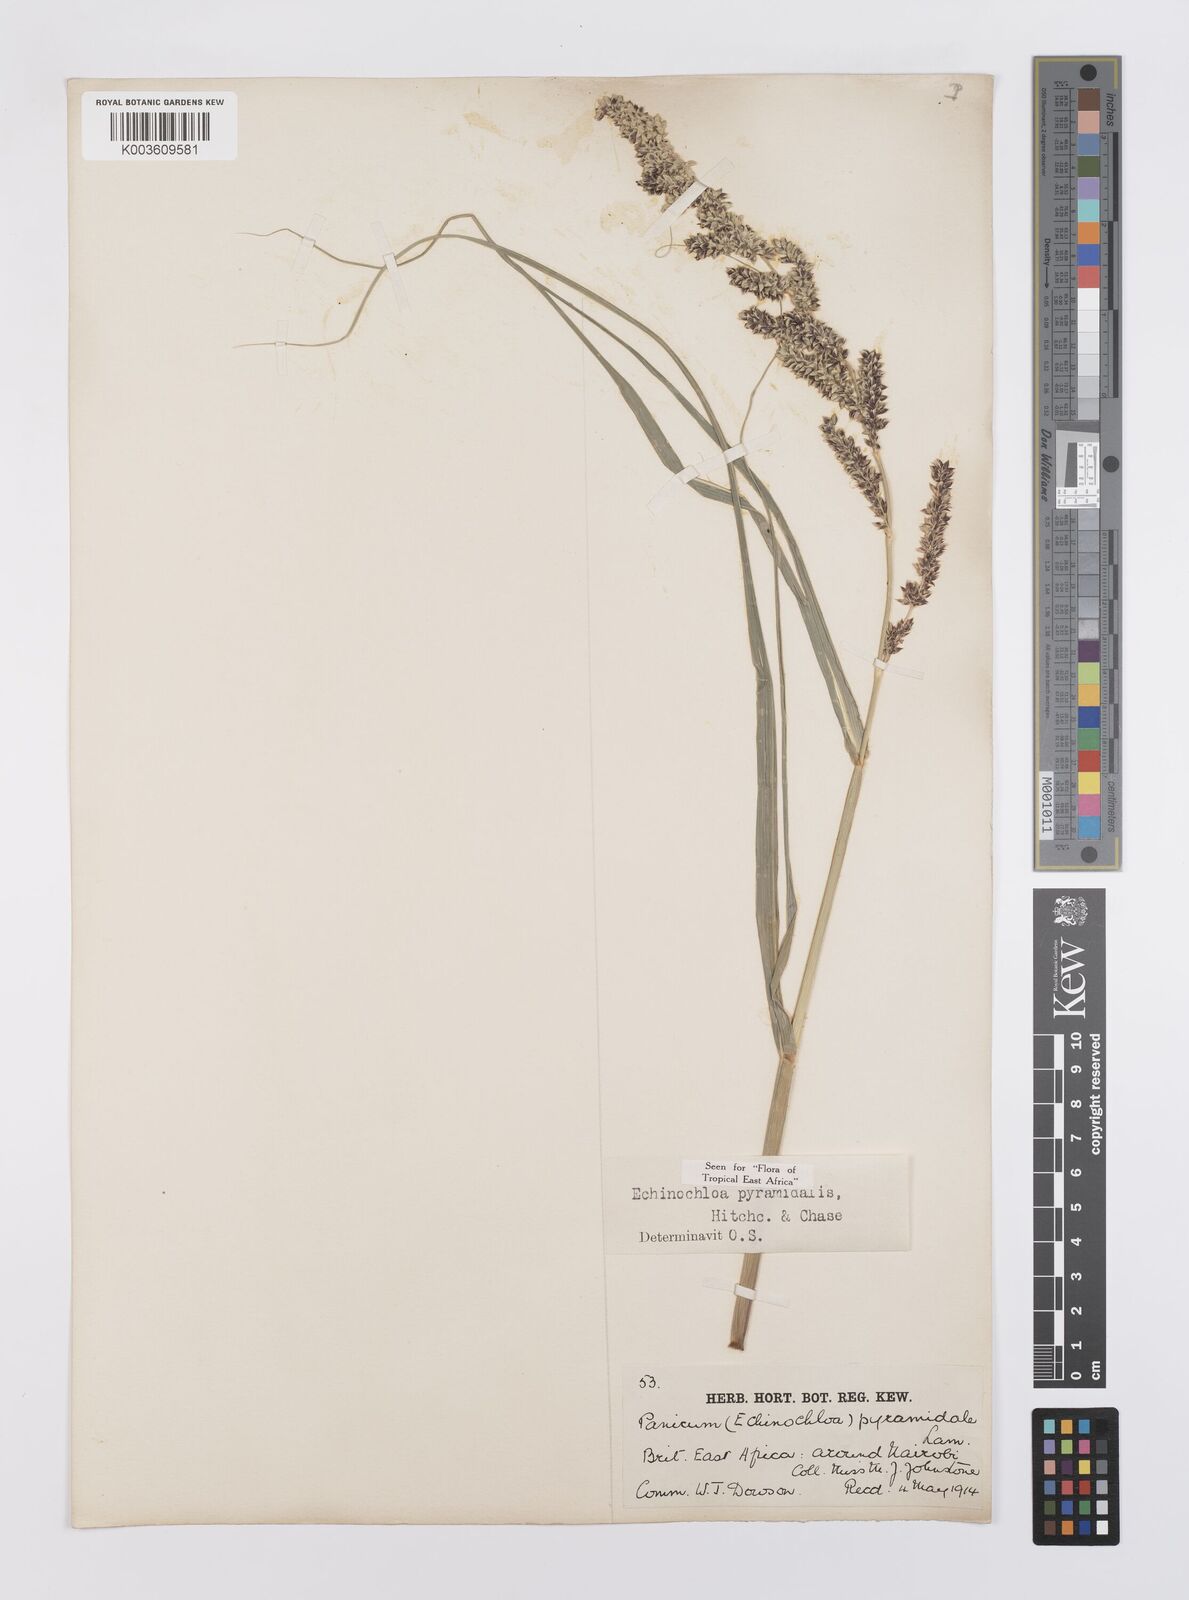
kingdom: Plantae
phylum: Tracheophyta
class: Liliopsida
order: Poales
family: Poaceae
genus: Echinochloa
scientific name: Echinochloa pyramidalis
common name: Antelope grass
